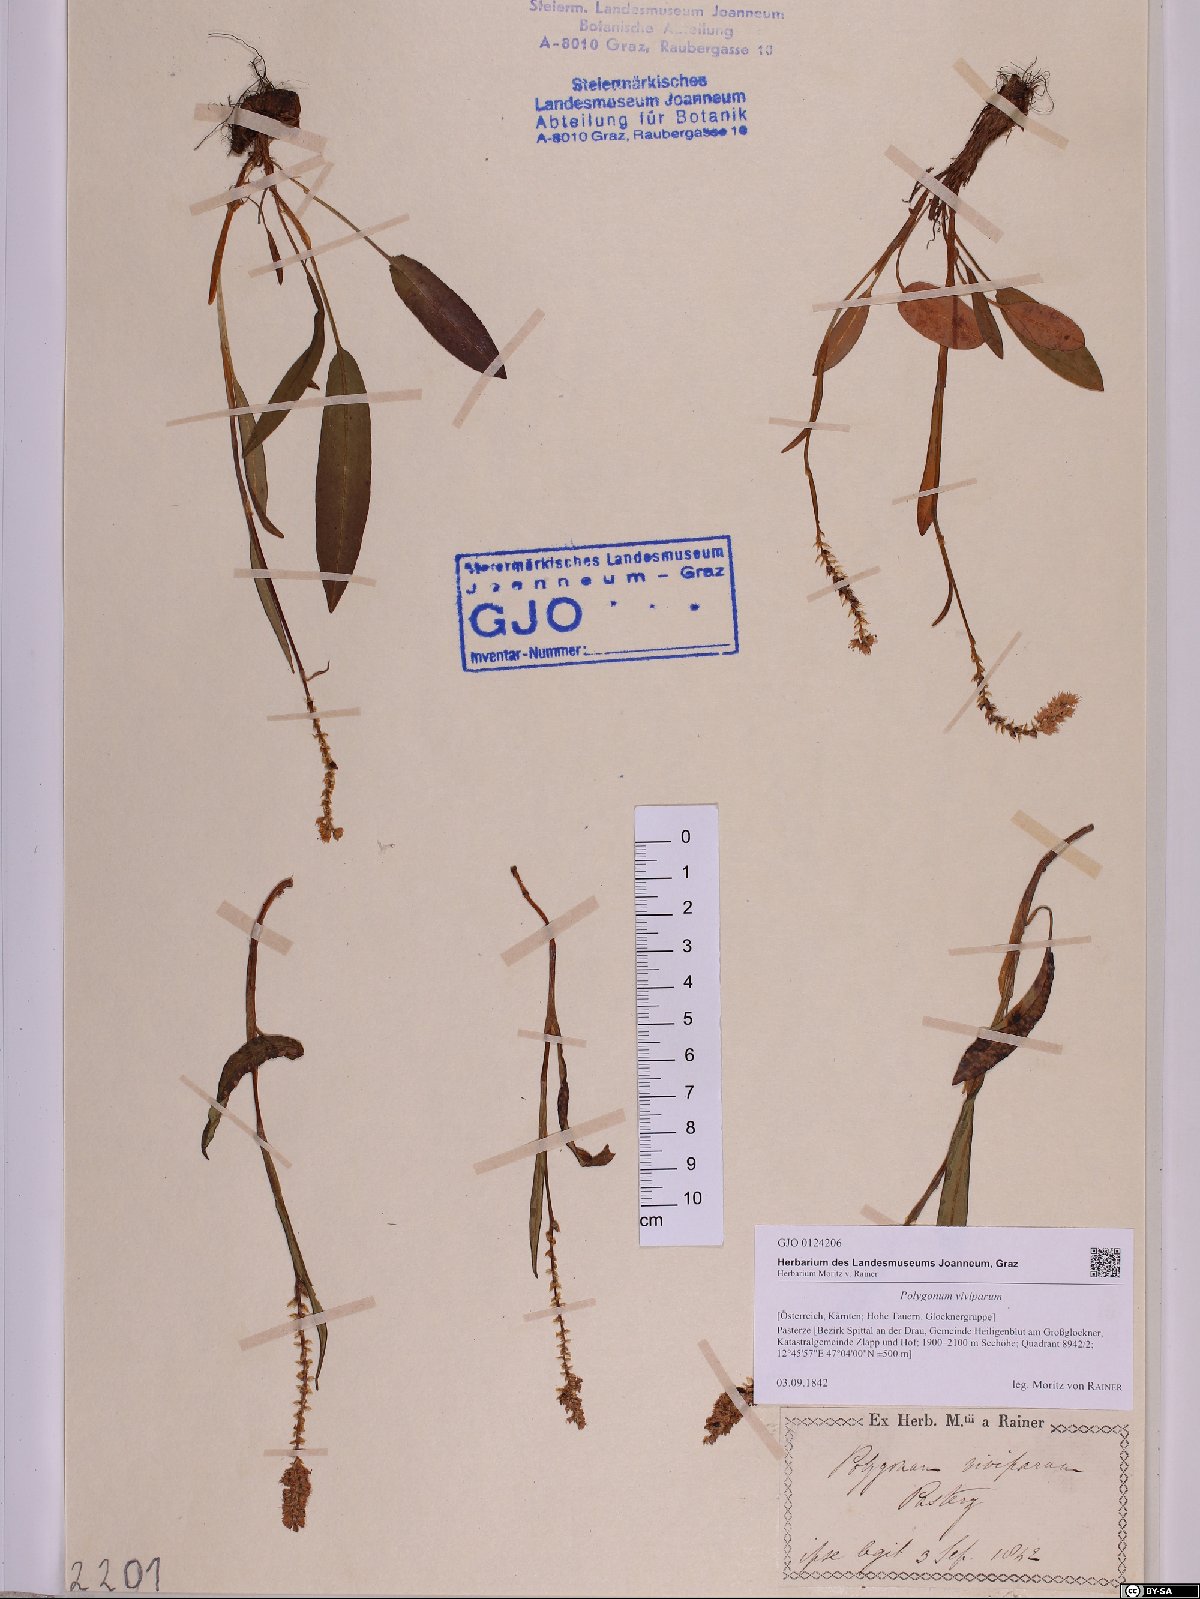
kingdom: Plantae
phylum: Tracheophyta
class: Magnoliopsida
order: Caryophyllales
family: Polygonaceae
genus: Bistorta
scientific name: Bistorta vivipara
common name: Alpine bistort
